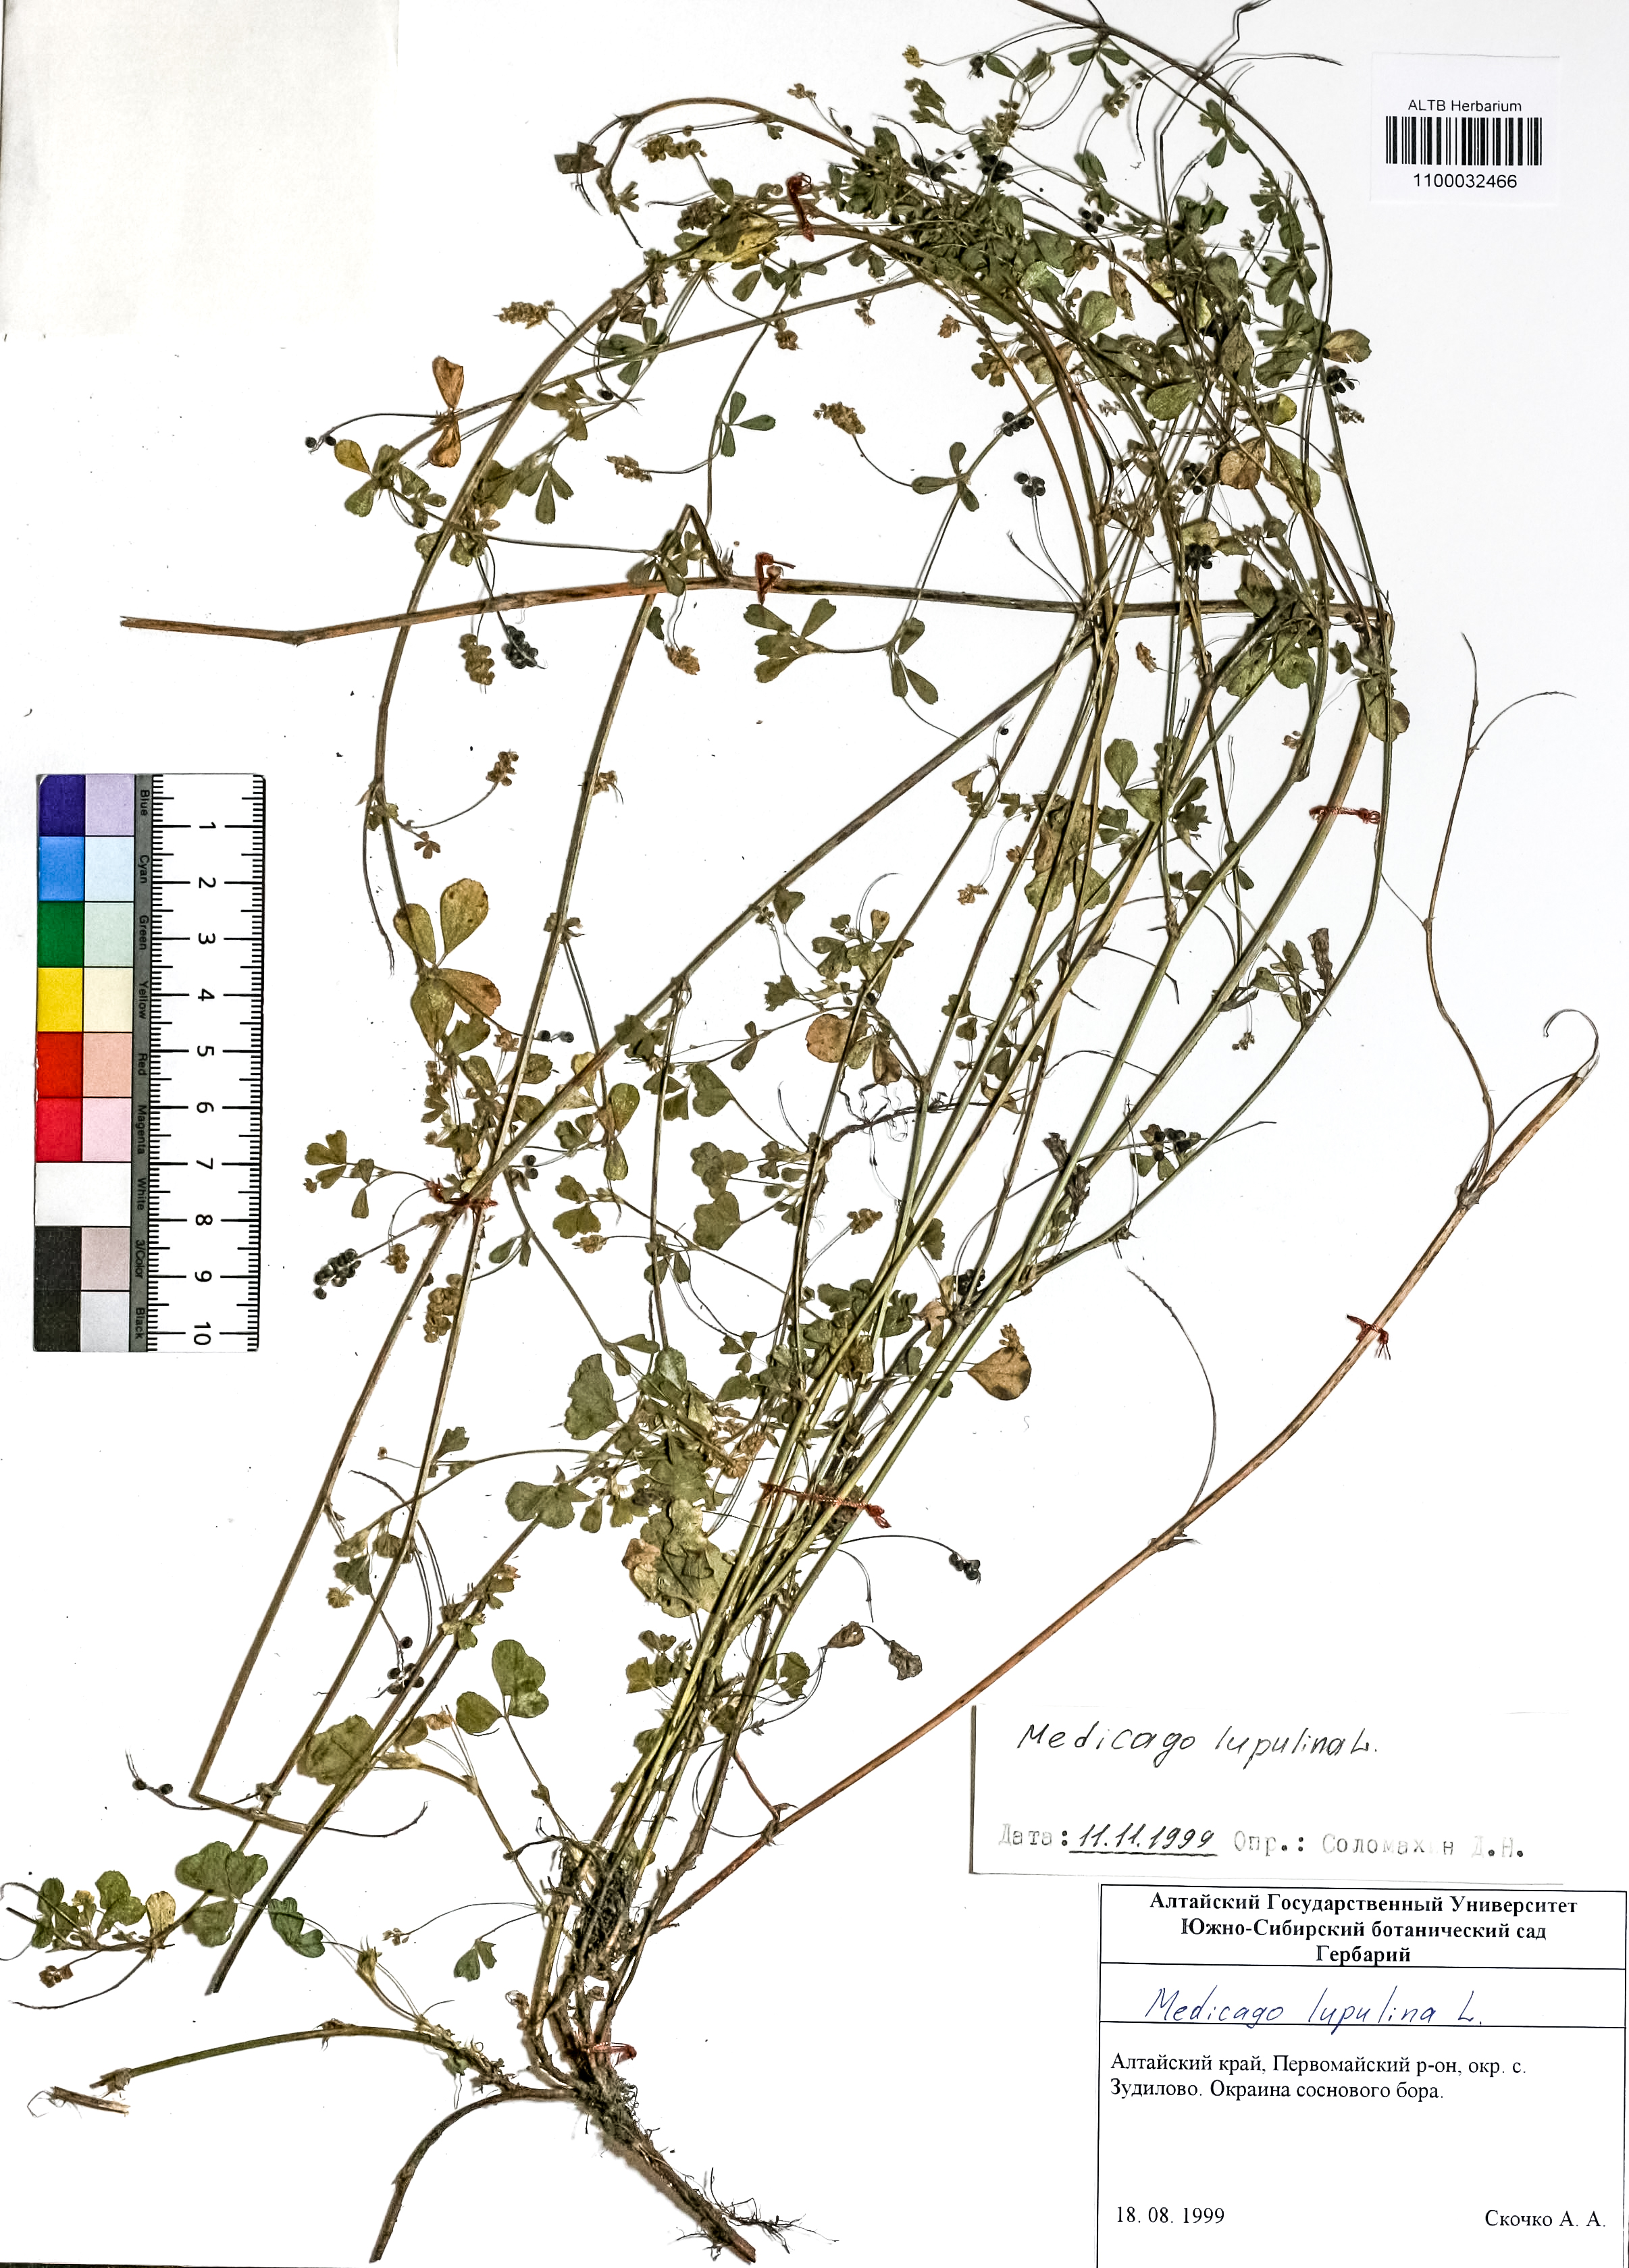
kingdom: Plantae
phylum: Tracheophyta
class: Magnoliopsida
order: Fabales
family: Fabaceae
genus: Medicago
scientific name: Medicago lupulina
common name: Black medick
